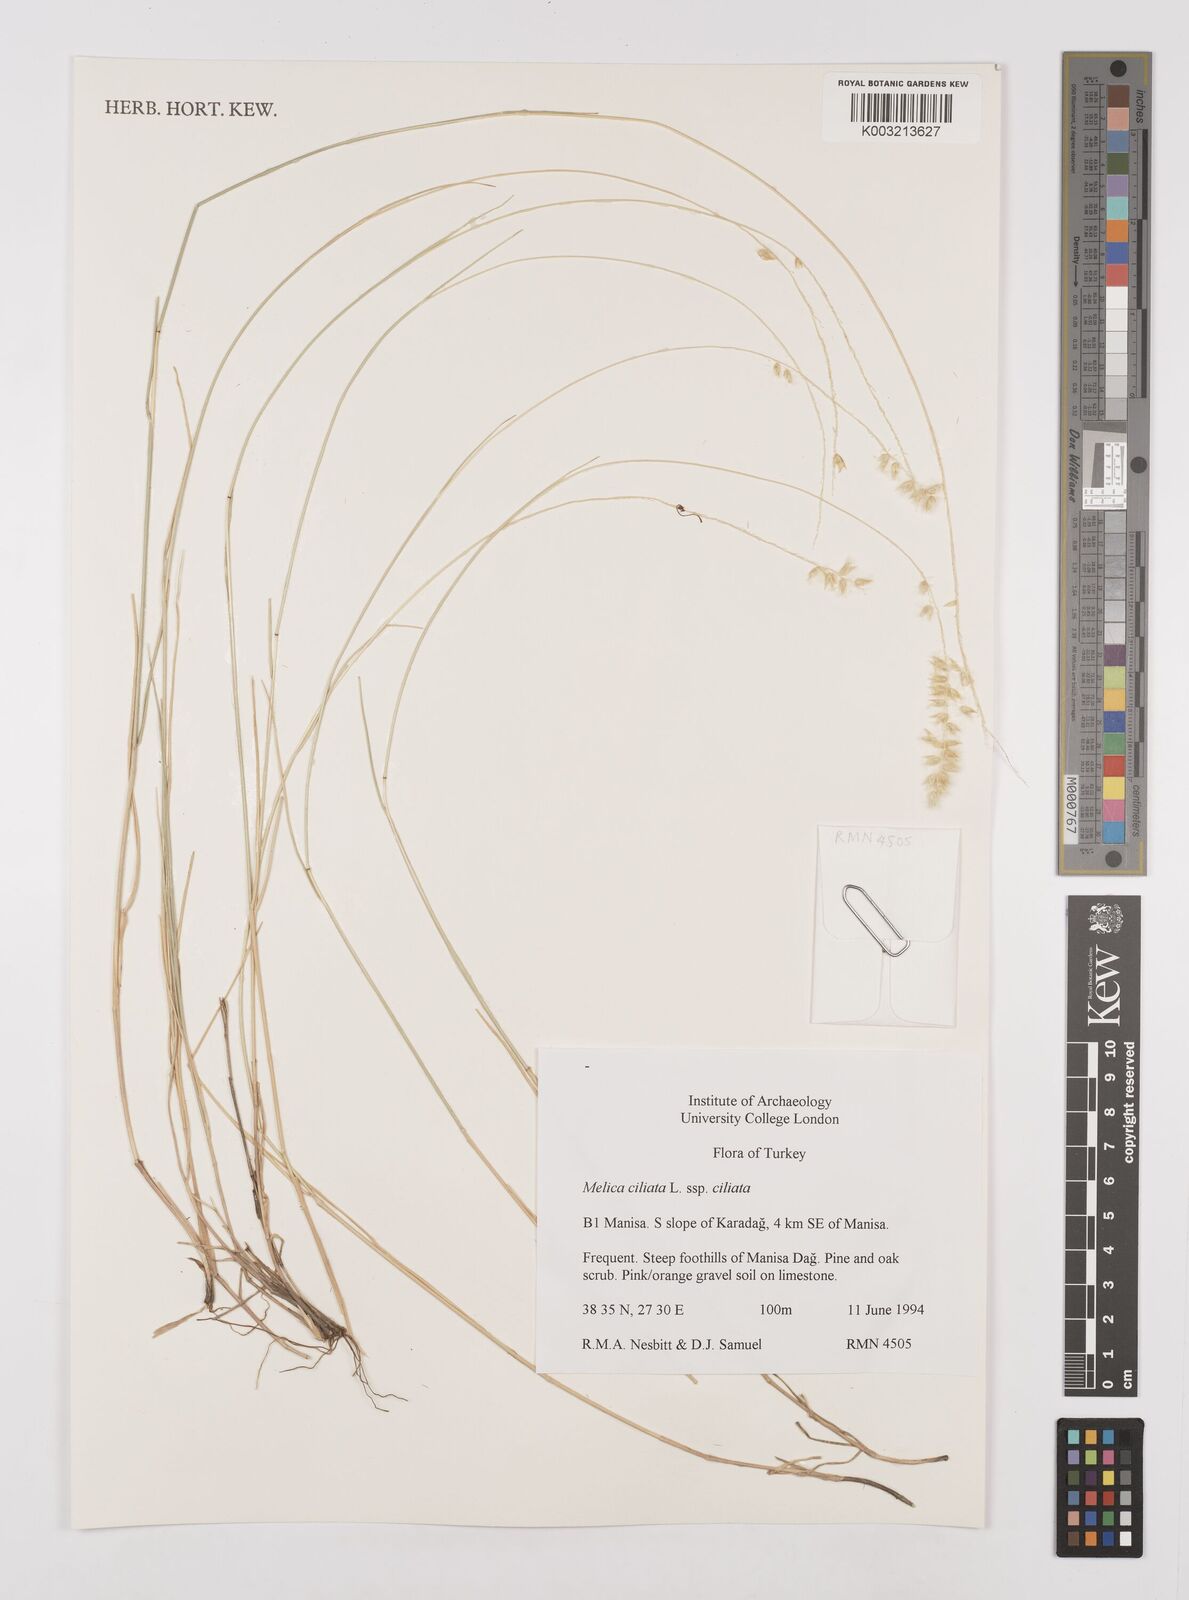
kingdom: Plantae
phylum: Tracheophyta
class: Liliopsida
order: Poales
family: Poaceae
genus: Melica
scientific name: Melica ciliata
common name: Hairy melicgrass
